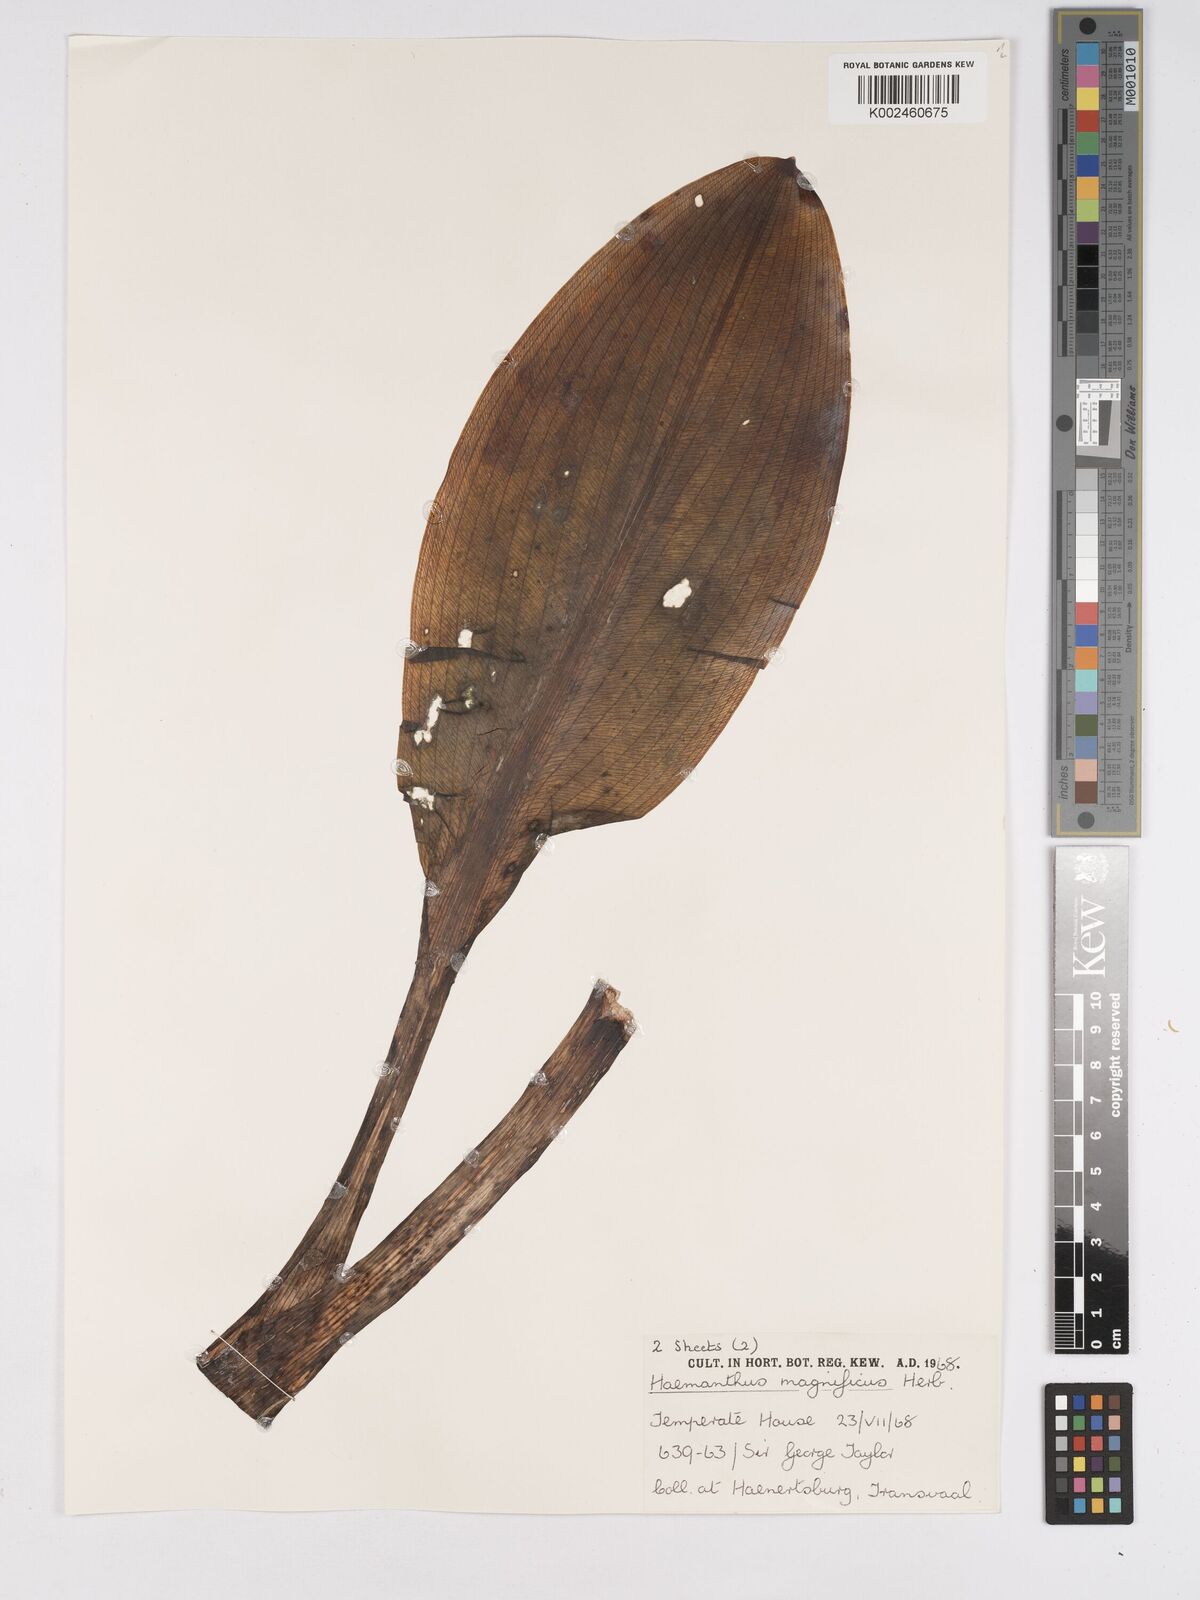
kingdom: Plantae
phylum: Tracheophyta
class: Liliopsida
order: Asparagales
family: Amaryllidaceae
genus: Scadoxus
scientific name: Scadoxus puniceus
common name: Royal-paintbrush
